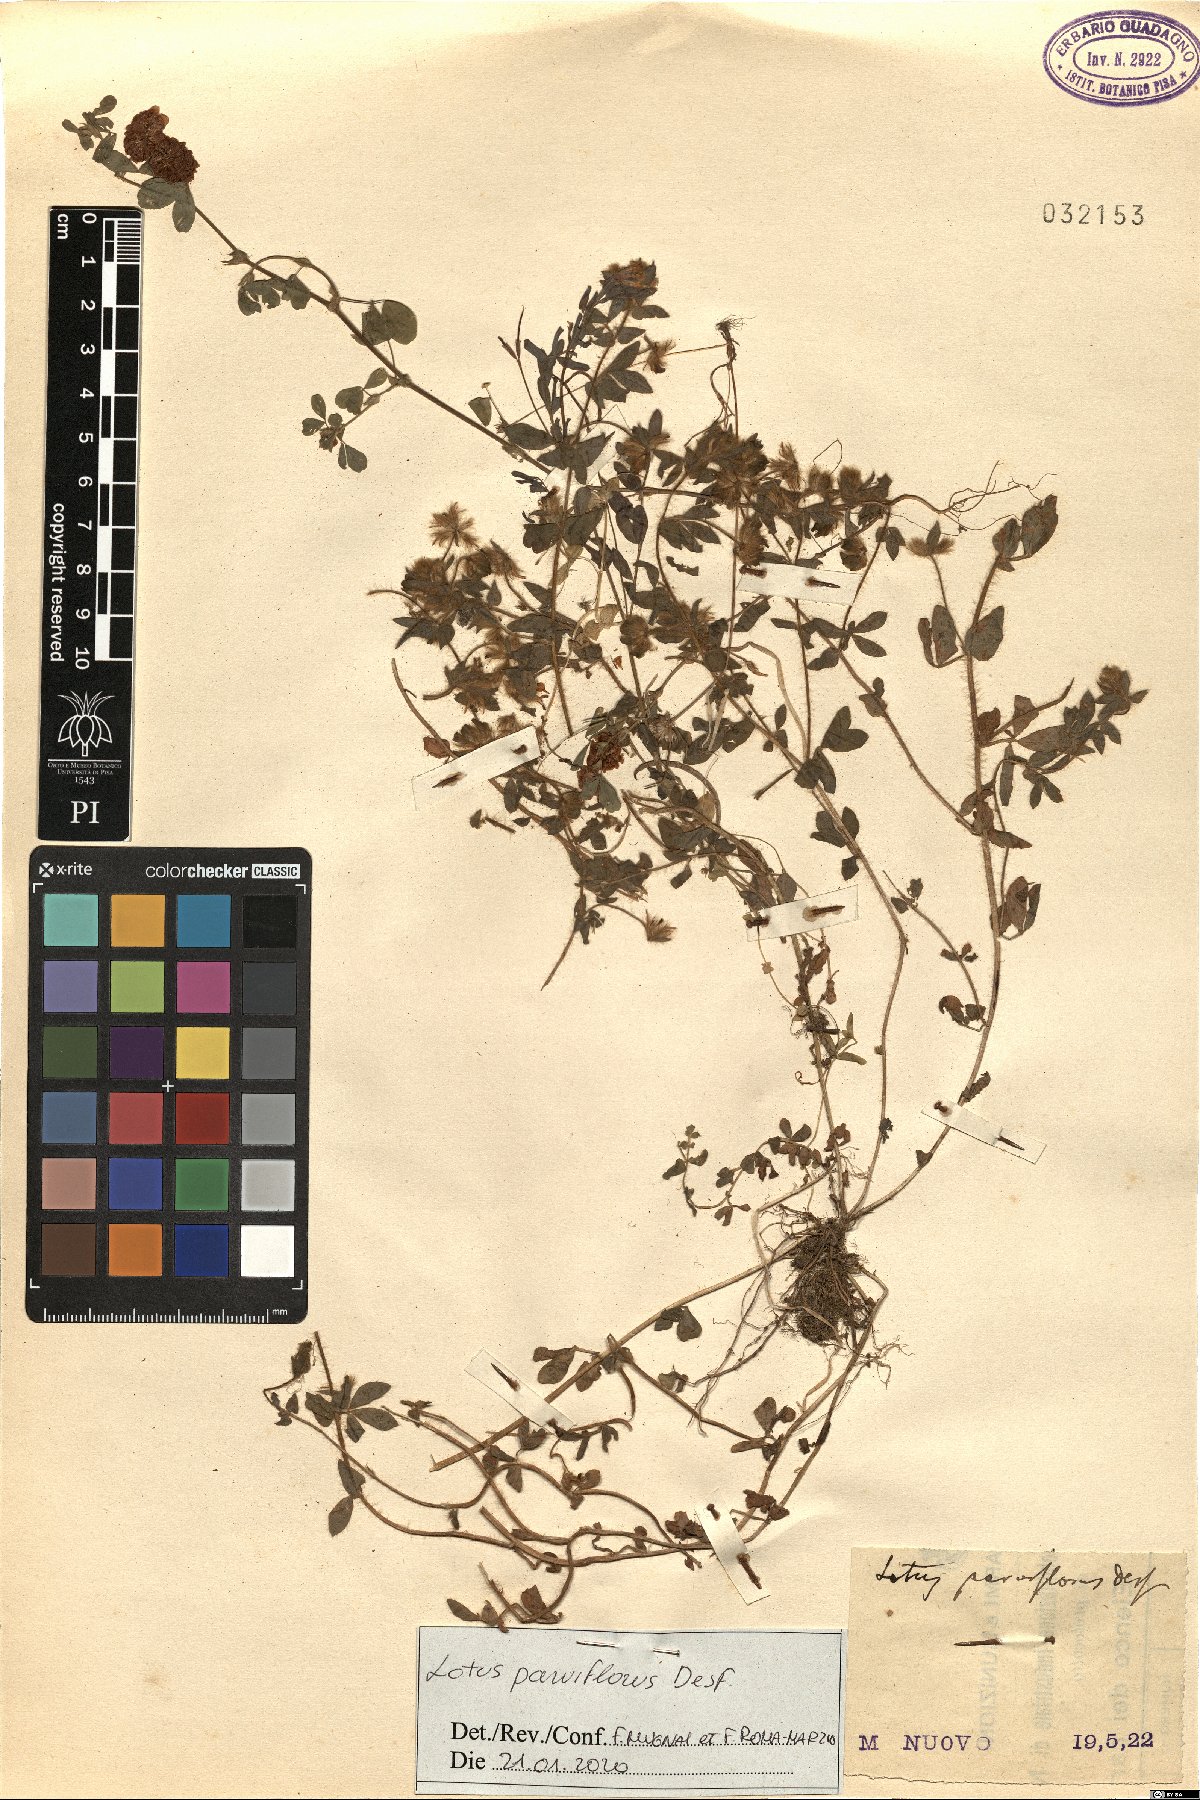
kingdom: Plantae
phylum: Tracheophyta
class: Magnoliopsida
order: Fabales
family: Fabaceae
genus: Lotus
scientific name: Lotus parviflorus
